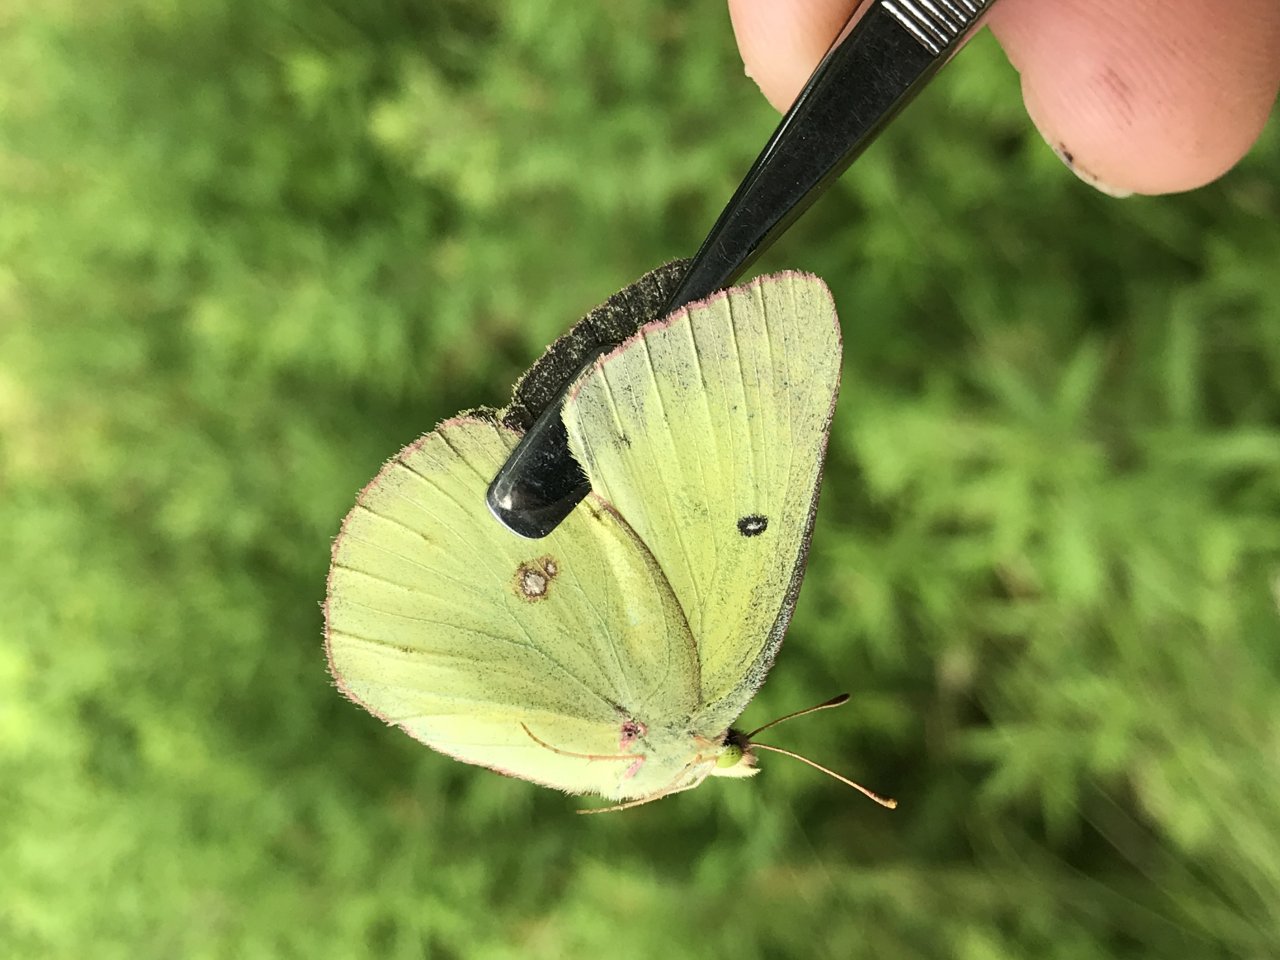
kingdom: Animalia
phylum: Arthropoda
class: Insecta
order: Lepidoptera
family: Pieridae
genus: Colias
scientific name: Colias philodice
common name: Clouded Sulphur
